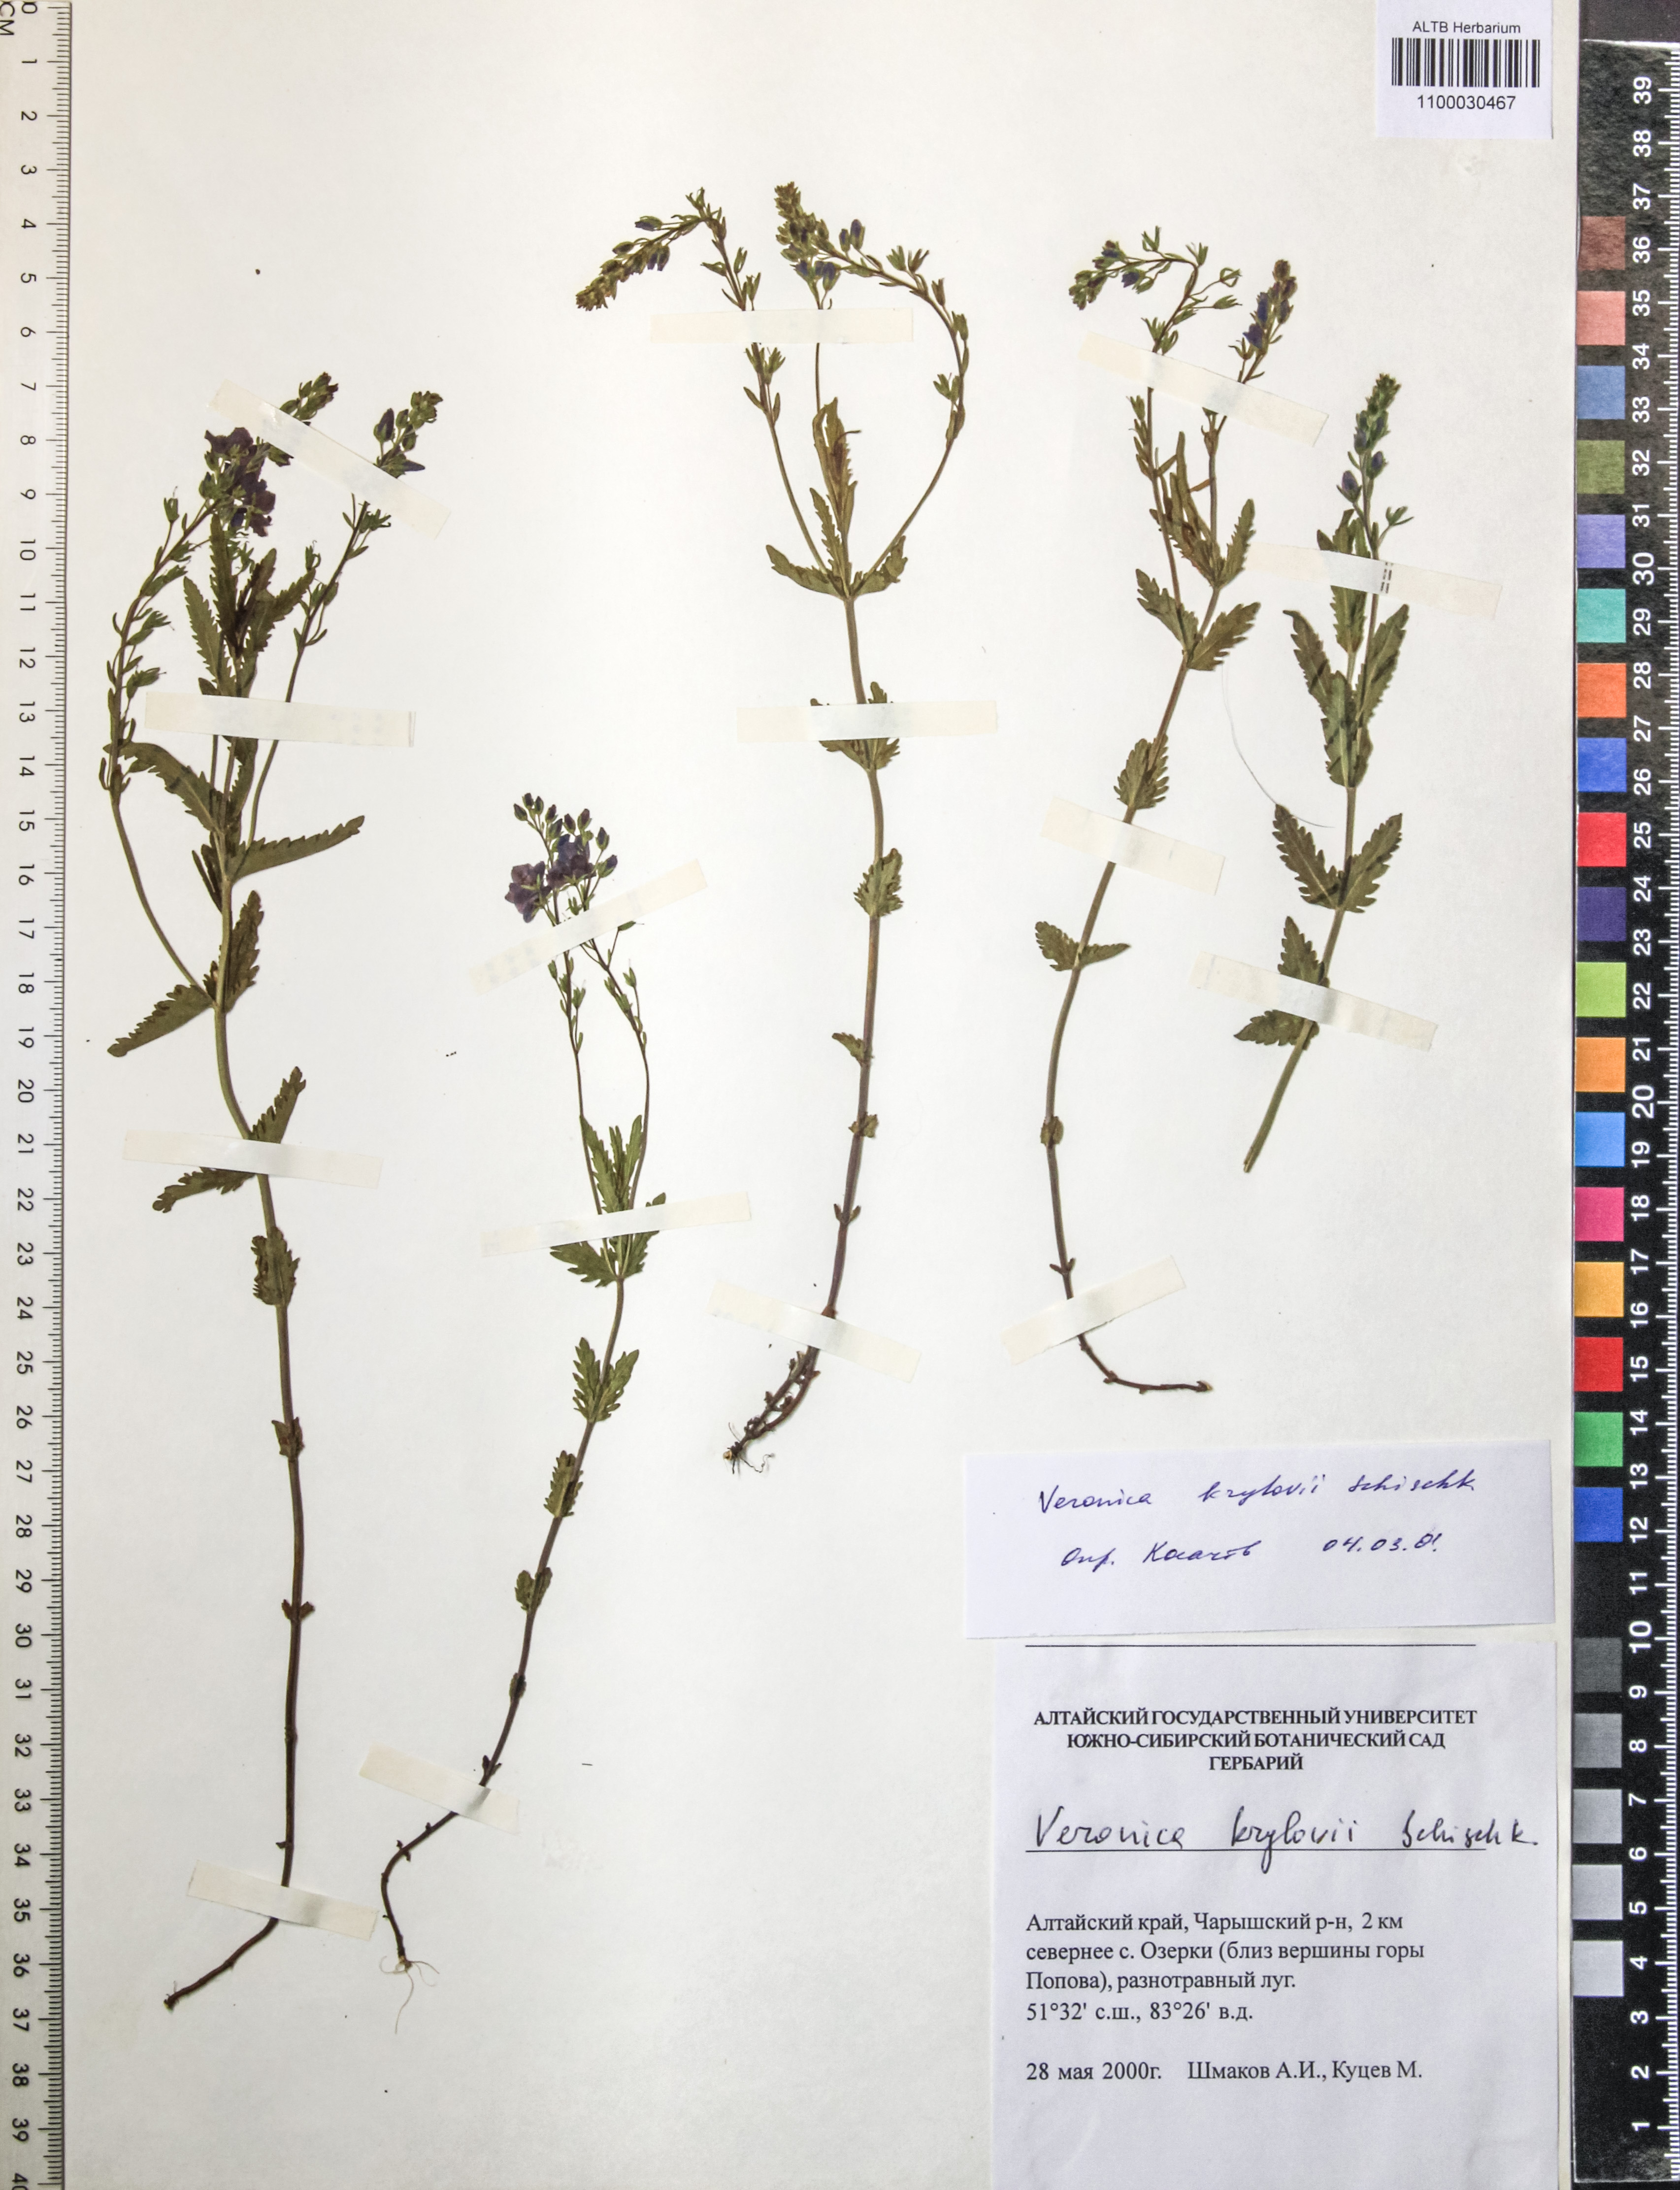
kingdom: Plantae
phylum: Tracheophyta
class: Magnoliopsida
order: Lamiales
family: Plantaginaceae
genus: Veronica
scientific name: Veronica krylovii
